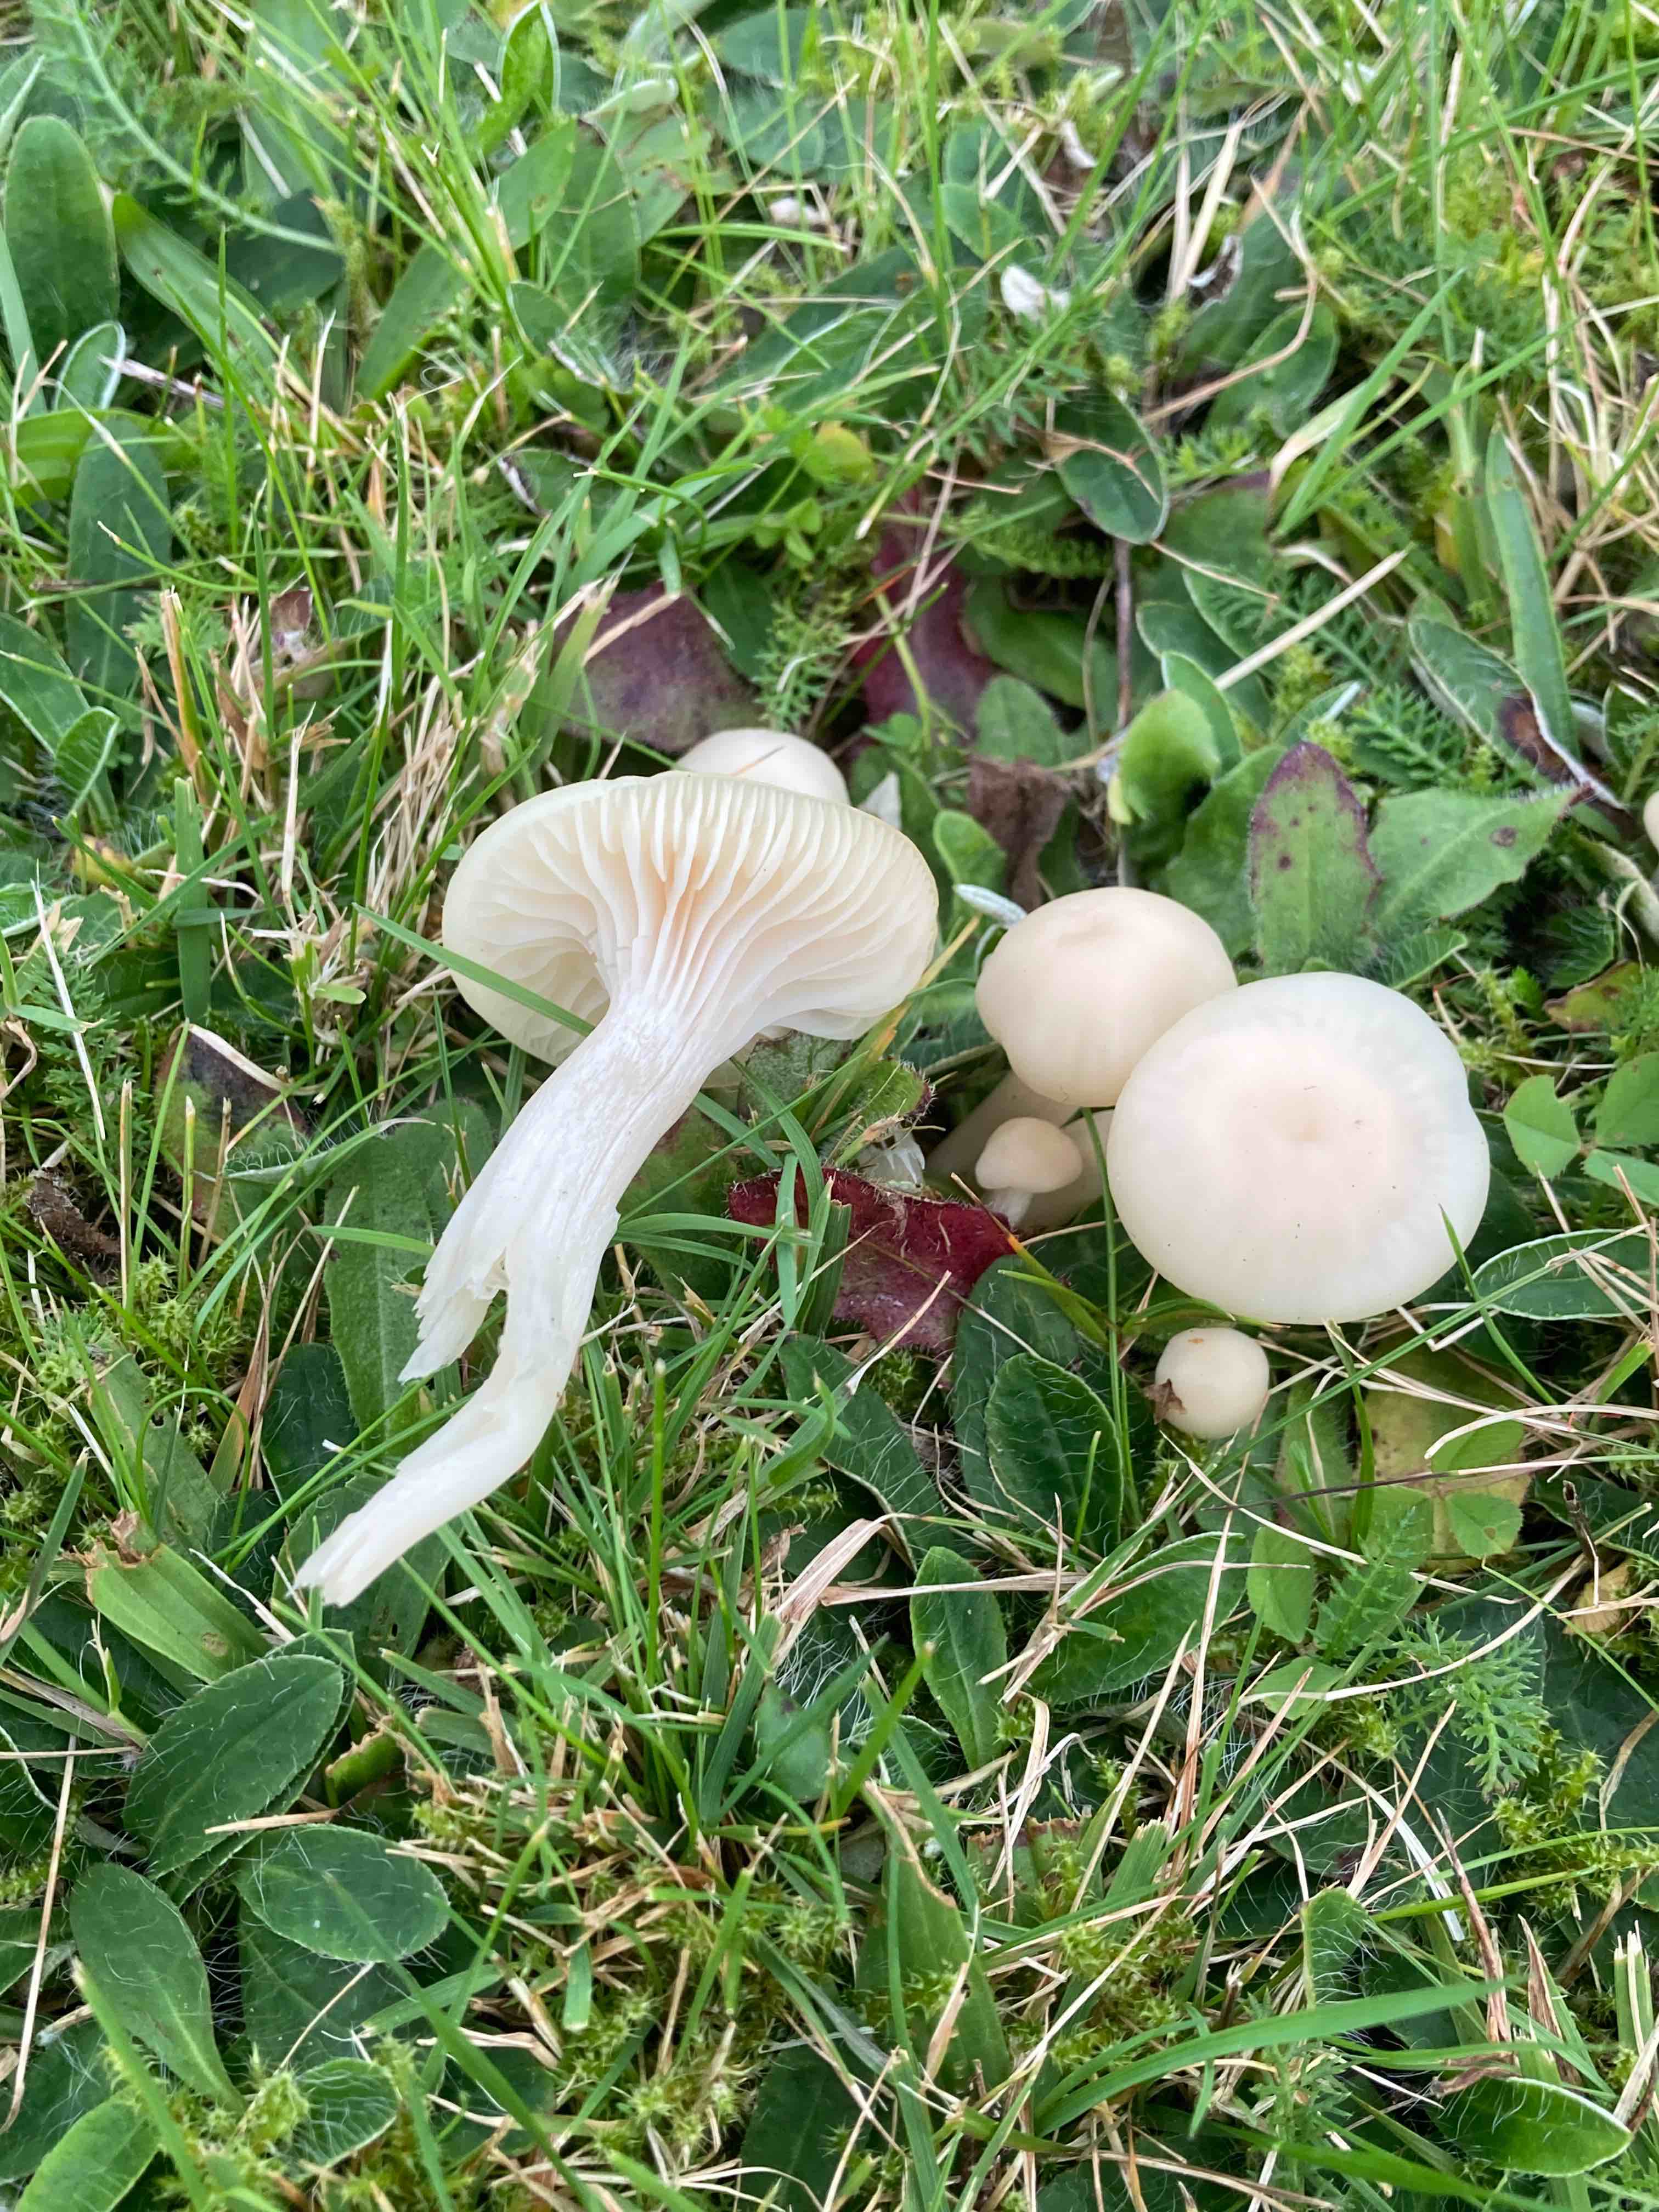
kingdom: Fungi
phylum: Basidiomycota
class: Agaricomycetes
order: Agaricales
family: Hygrophoraceae
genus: Cuphophyllus
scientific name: Cuphophyllus virgineus
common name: snehvid vokshat
